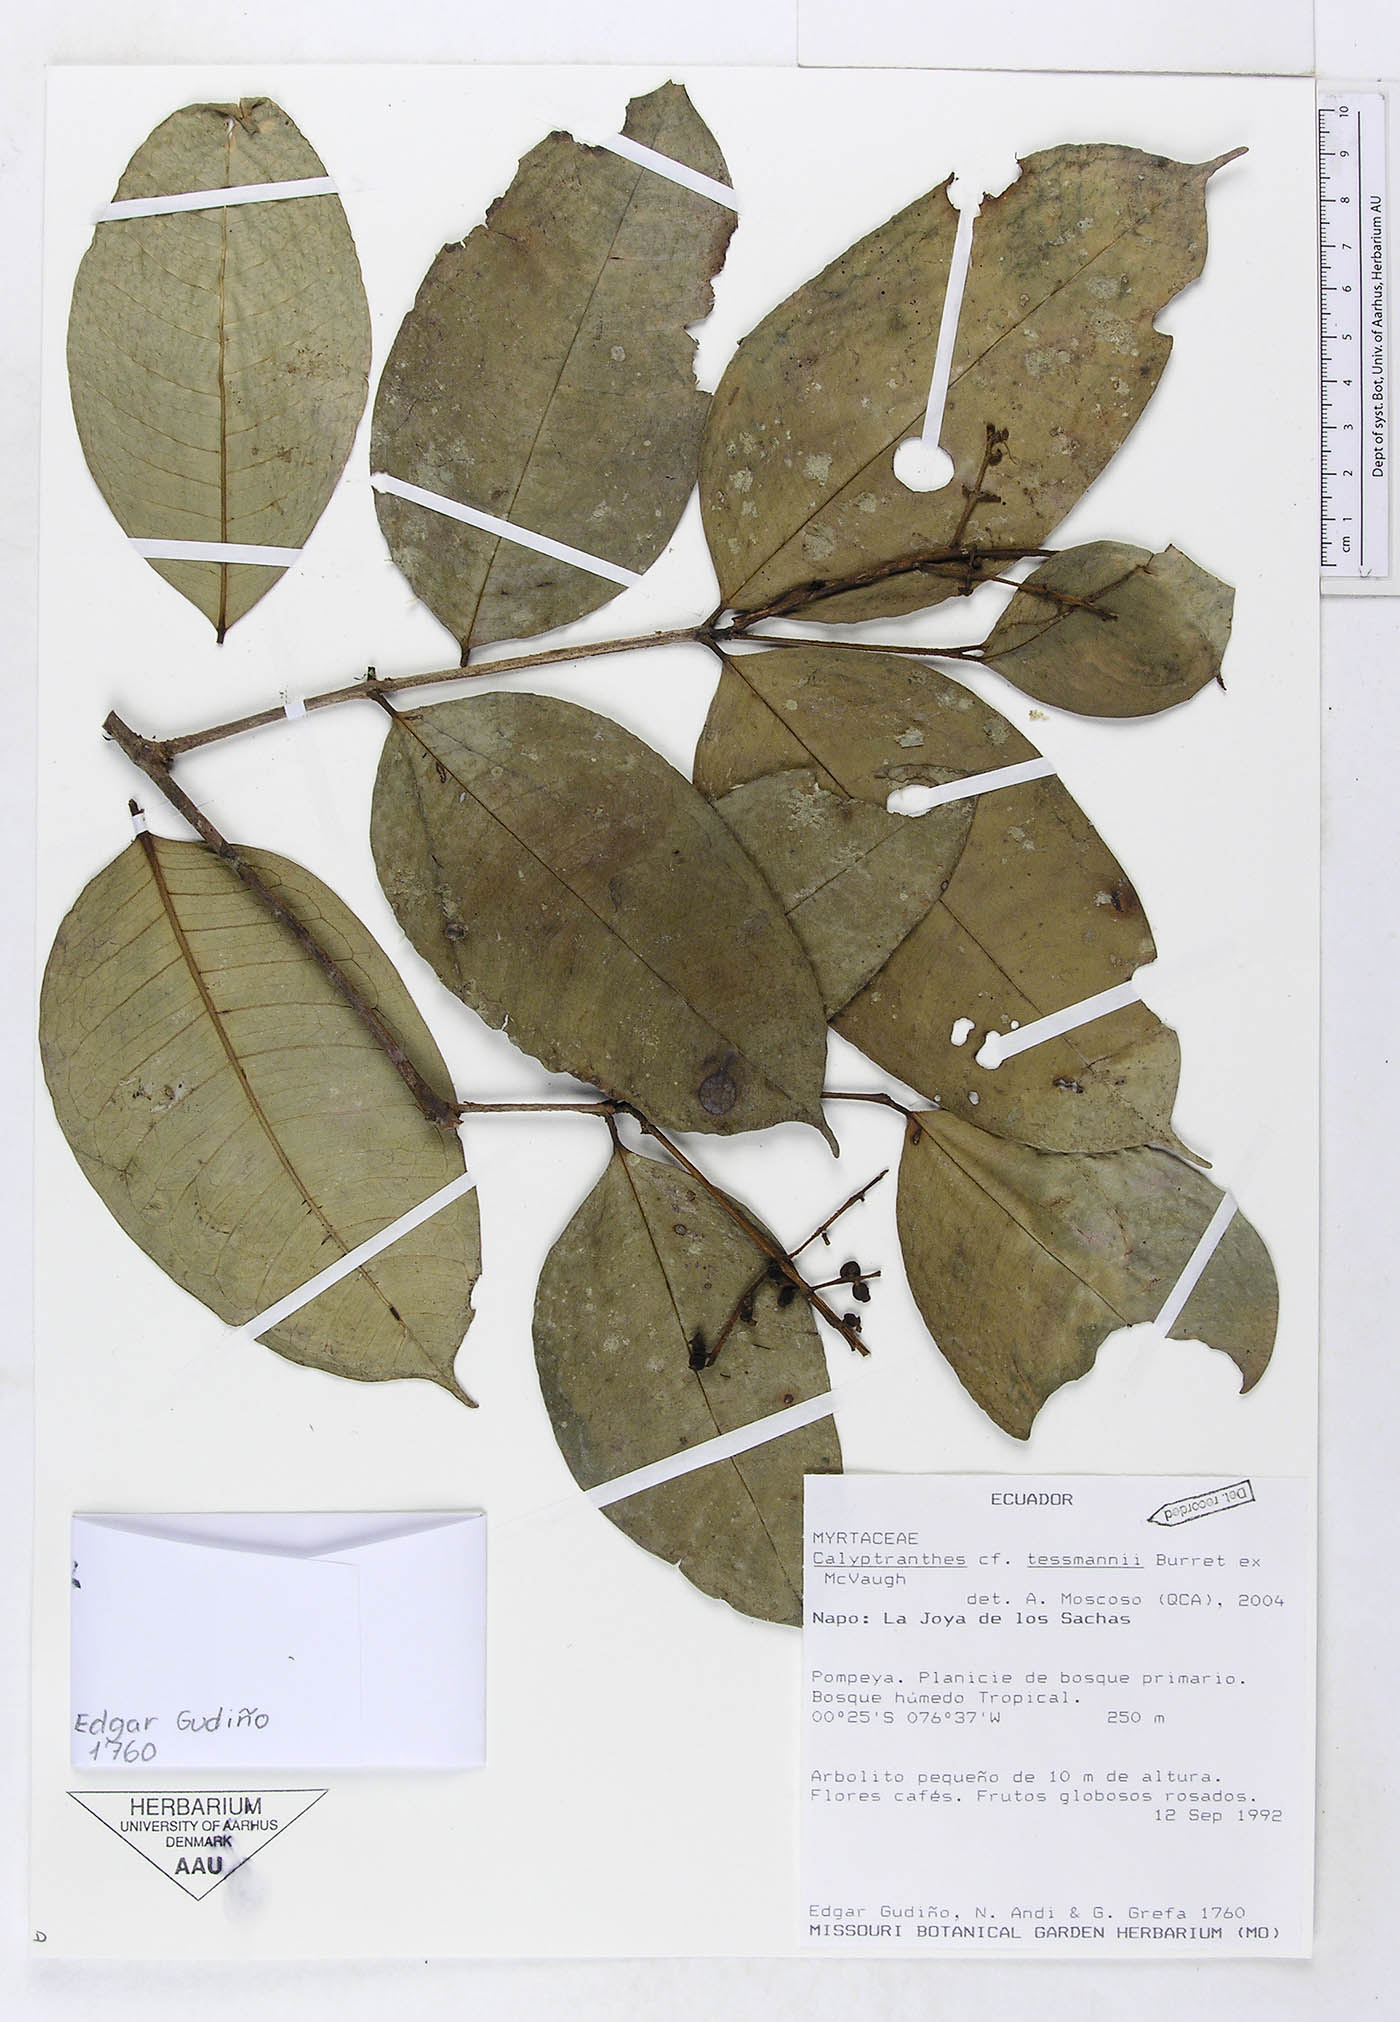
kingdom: Plantae
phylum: Tracheophyta
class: Magnoliopsida
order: Myrtales
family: Myrtaceae
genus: Myrcia
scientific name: Myrcia tessmannii
